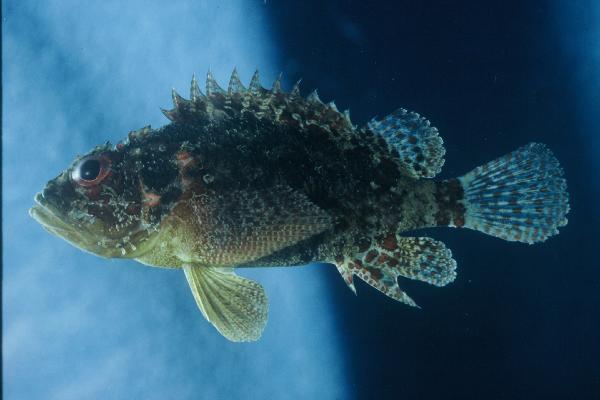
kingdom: Animalia
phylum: Chordata
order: Scorpaeniformes
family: Scorpaenidae
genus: Scorpaenodes
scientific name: Scorpaenodes varipinnis
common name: Blotchfin scorpionfish
